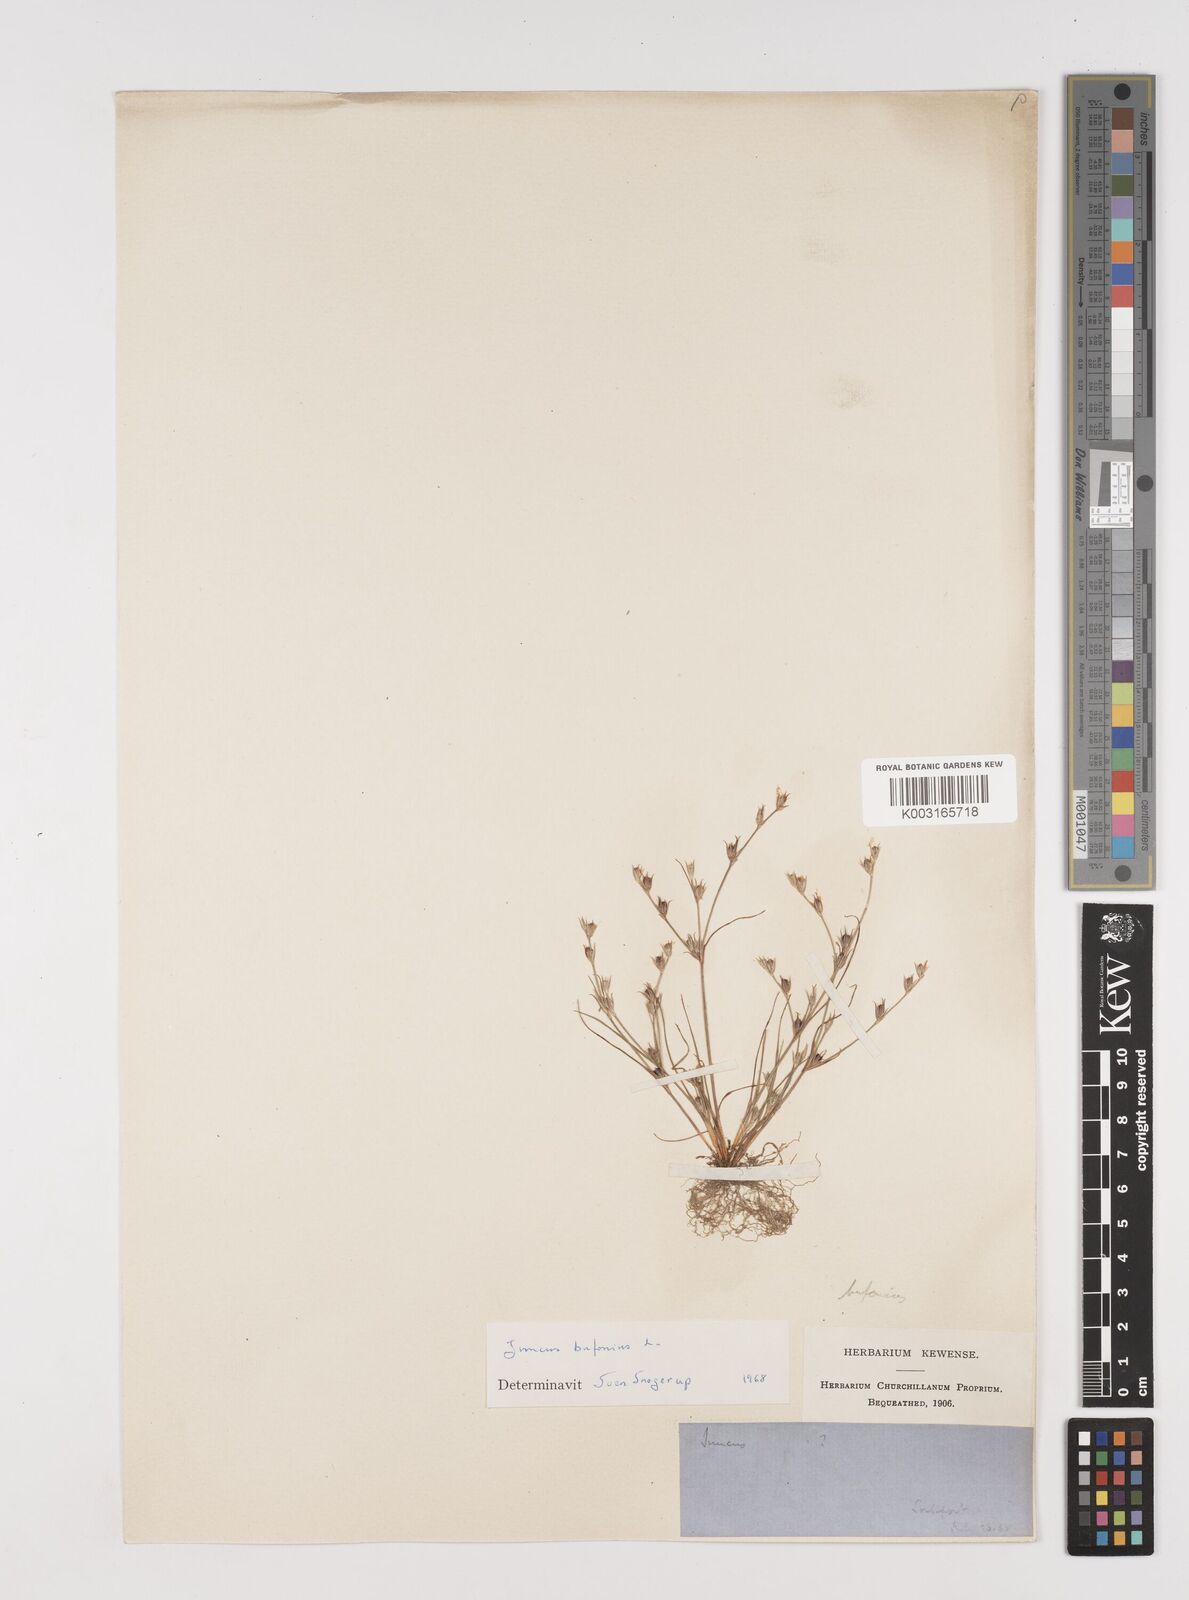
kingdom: Plantae
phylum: Tracheophyta
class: Liliopsida
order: Poales
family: Juncaceae
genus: Juncus
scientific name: Juncus bufonius
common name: Toad rush
